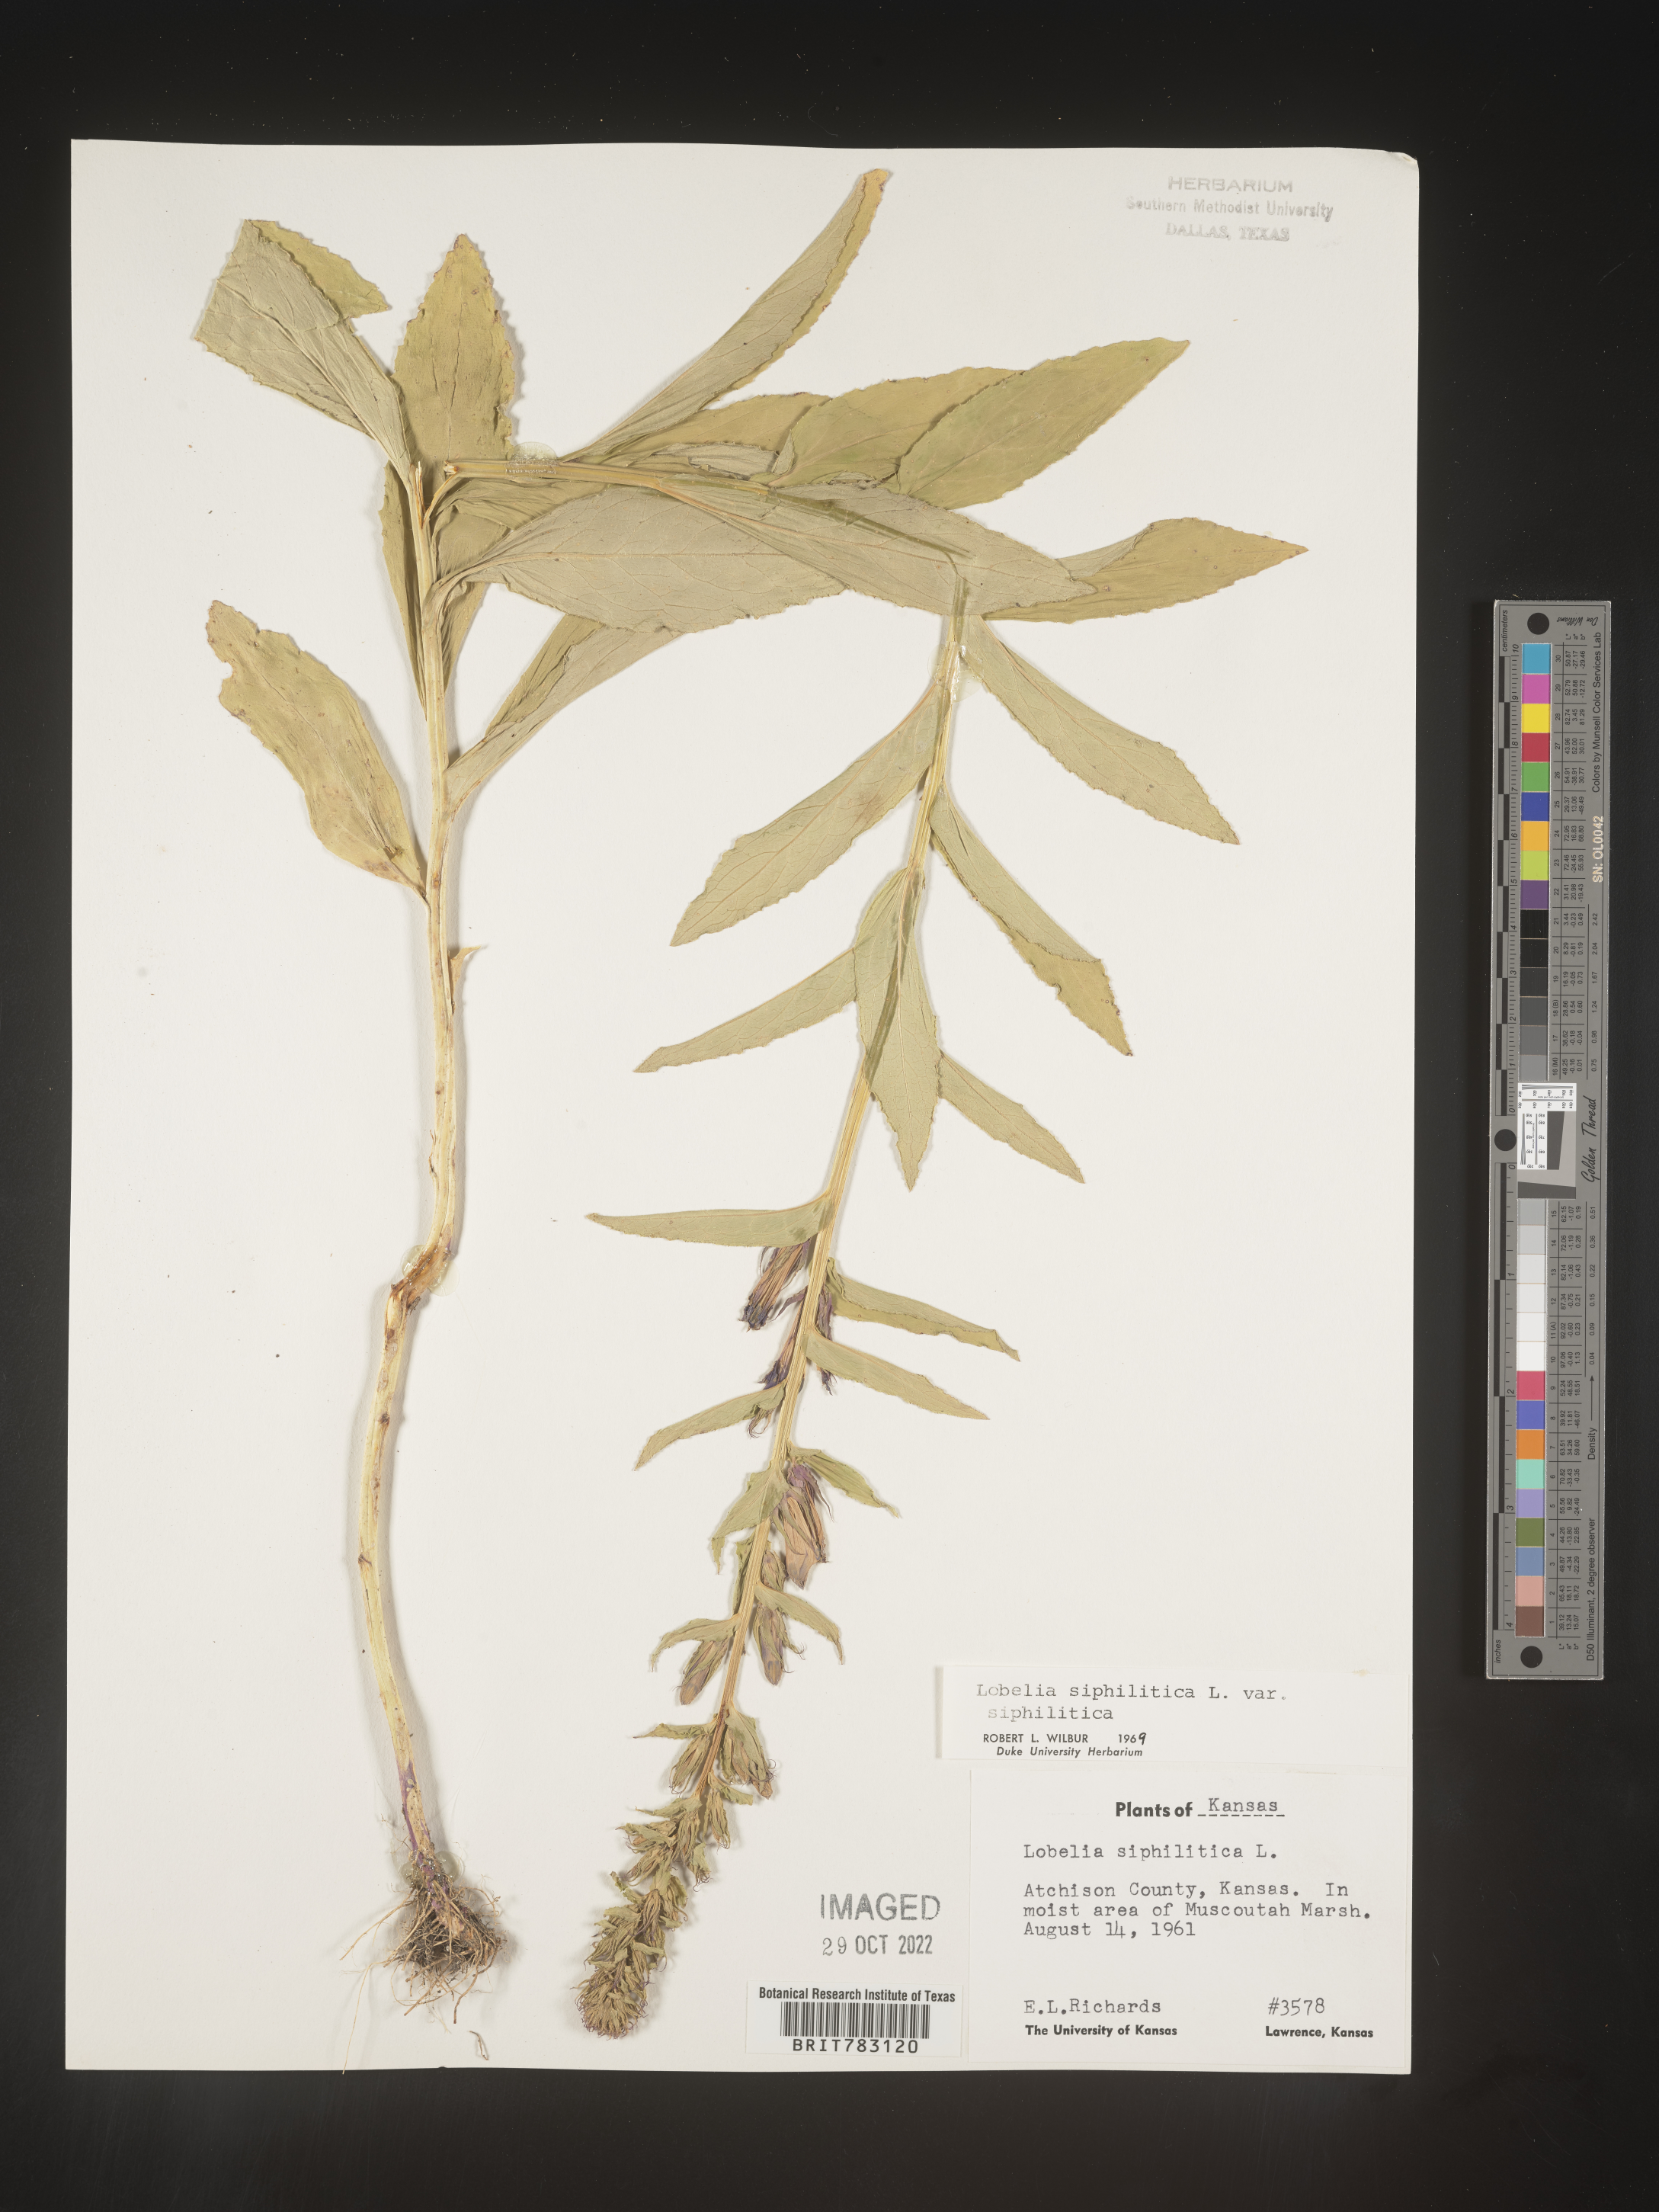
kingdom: Plantae
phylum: Tracheophyta
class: Magnoliopsida
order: Asterales
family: Campanulaceae
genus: Lobelia
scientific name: Lobelia siphilitica
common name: Great lobelia
